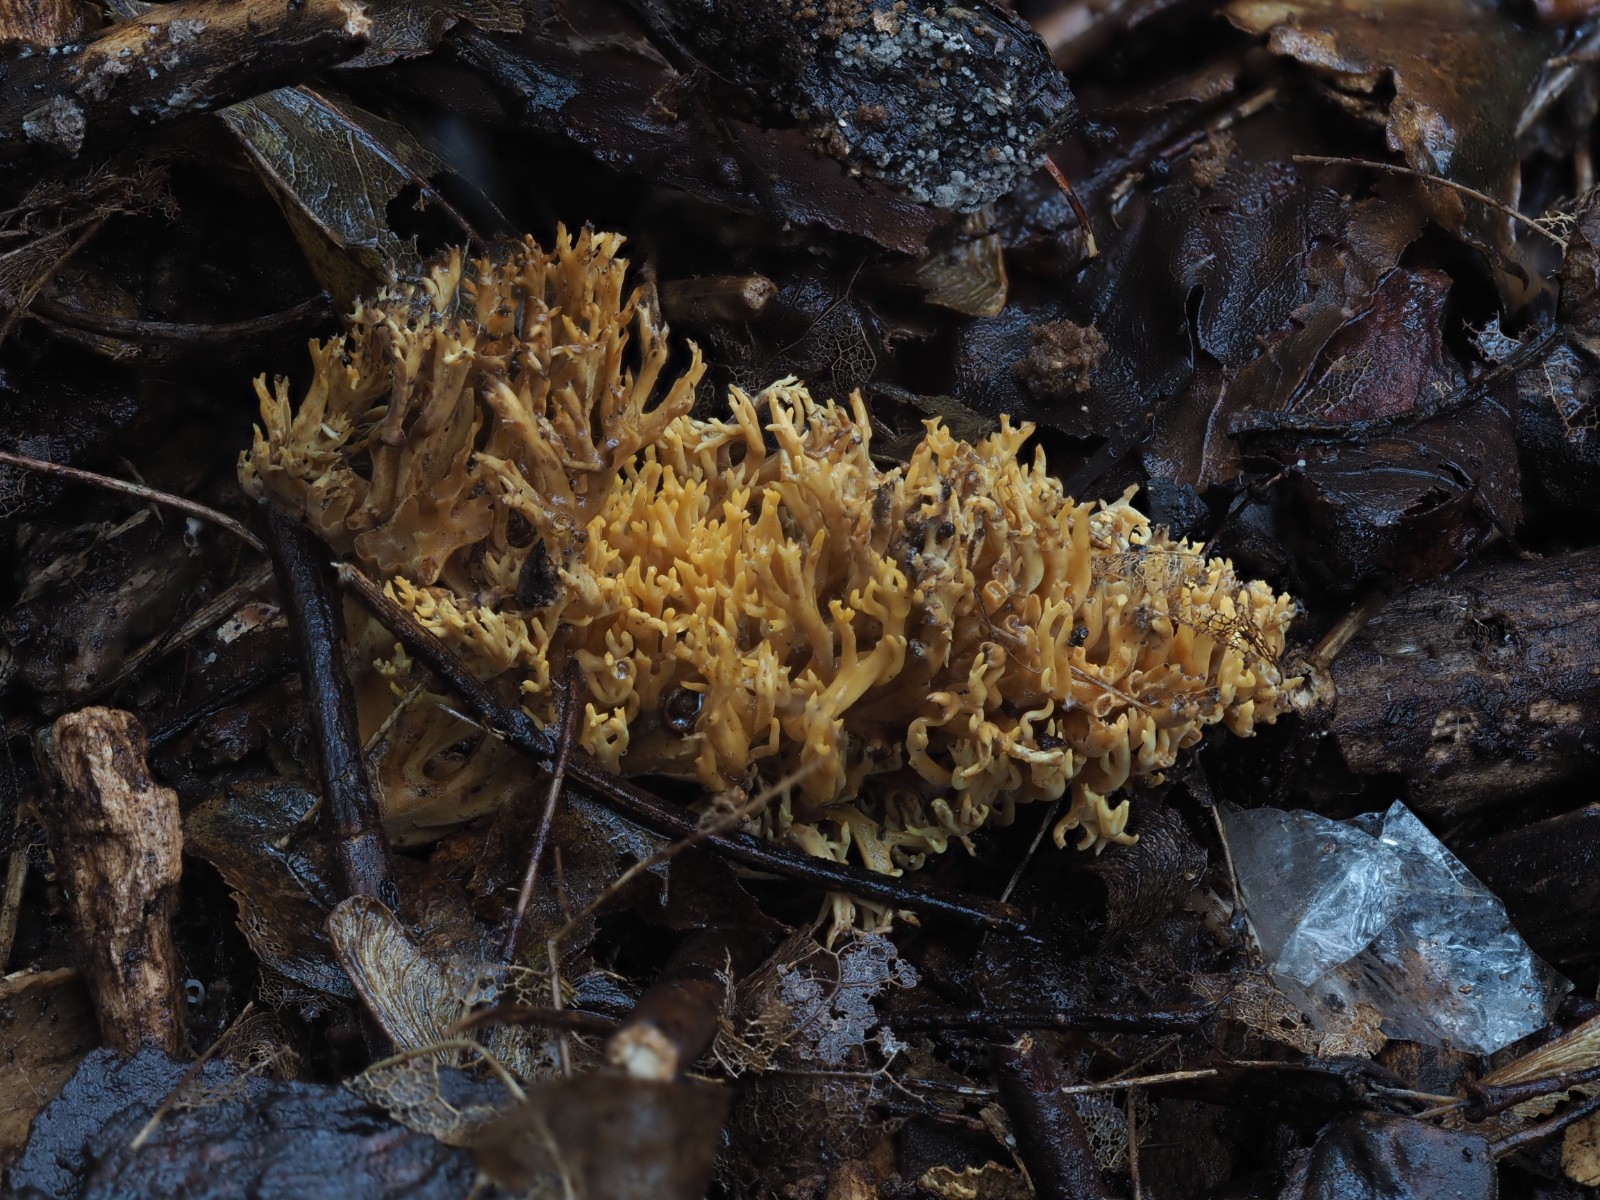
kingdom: Fungi
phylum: Basidiomycota
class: Agaricomycetes
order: Gomphales
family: Gomphaceae
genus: Phaeoclavulina
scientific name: Phaeoclavulina decurrens
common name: krat-koralsvamp
